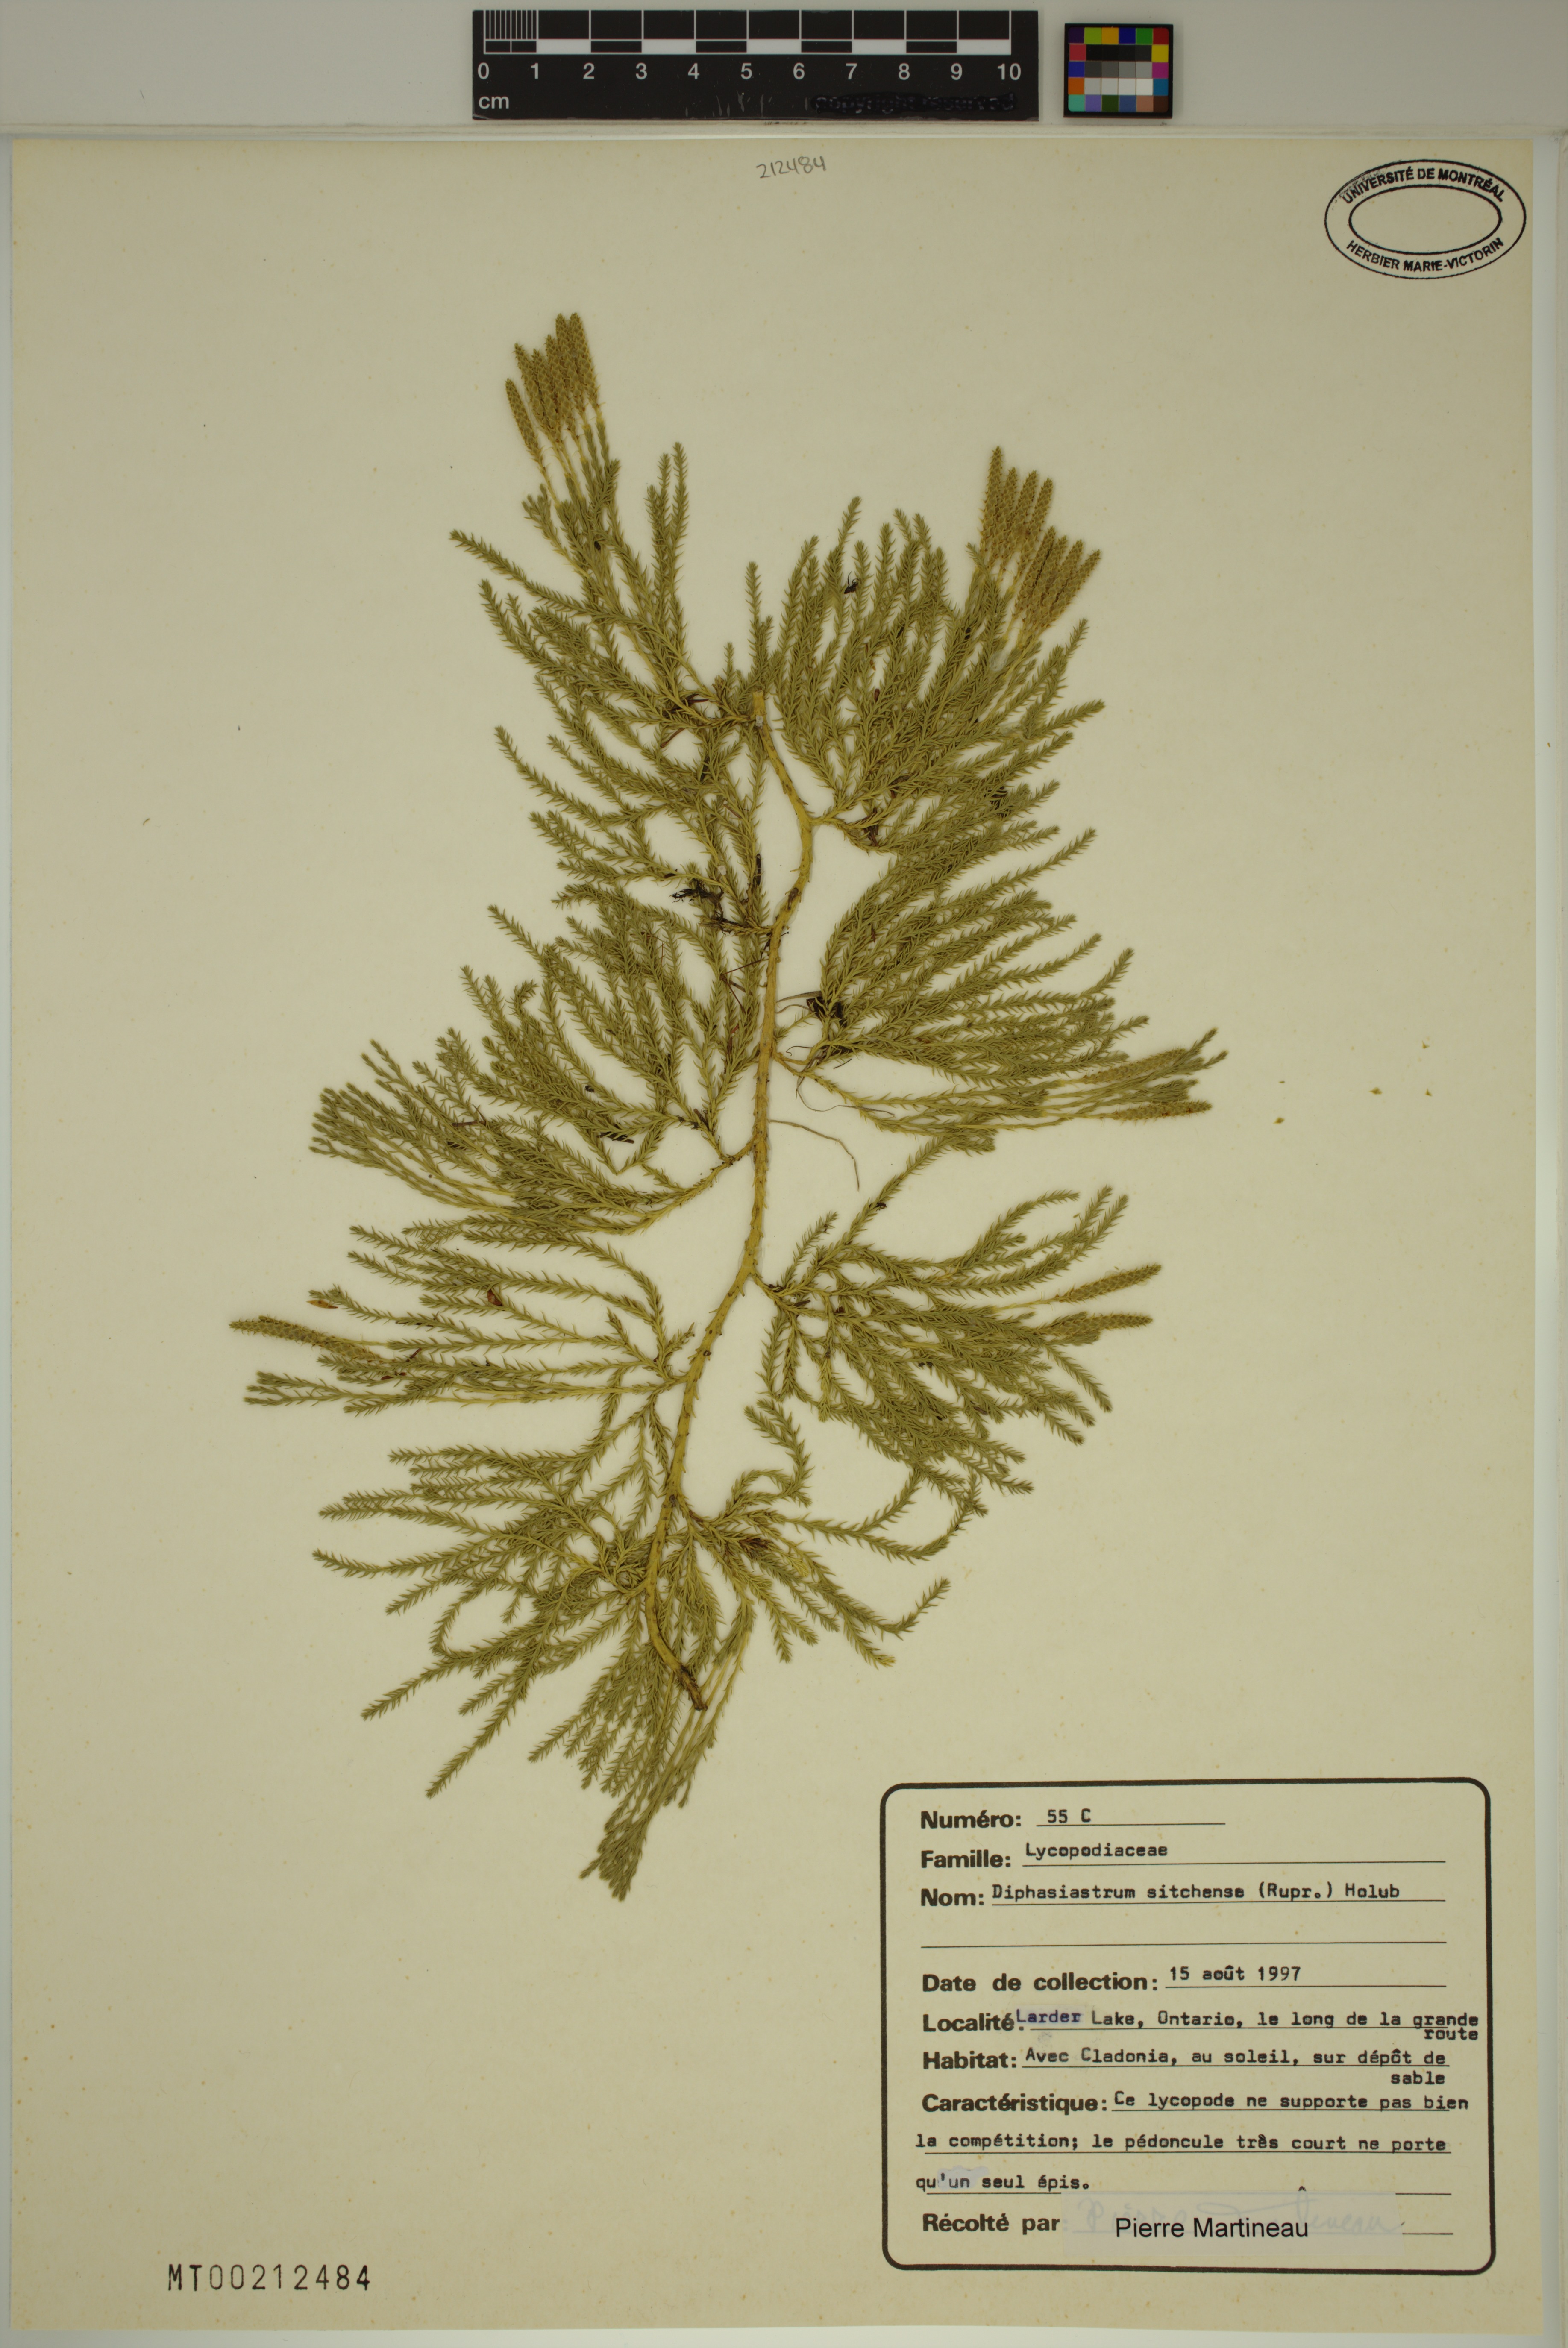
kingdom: Plantae
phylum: Tracheophyta
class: Lycopodiopsida
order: Lycopodiales
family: Lycopodiaceae
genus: Diphasiastrum
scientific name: Diphasiastrum sitchense
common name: Alaska clubmoss
